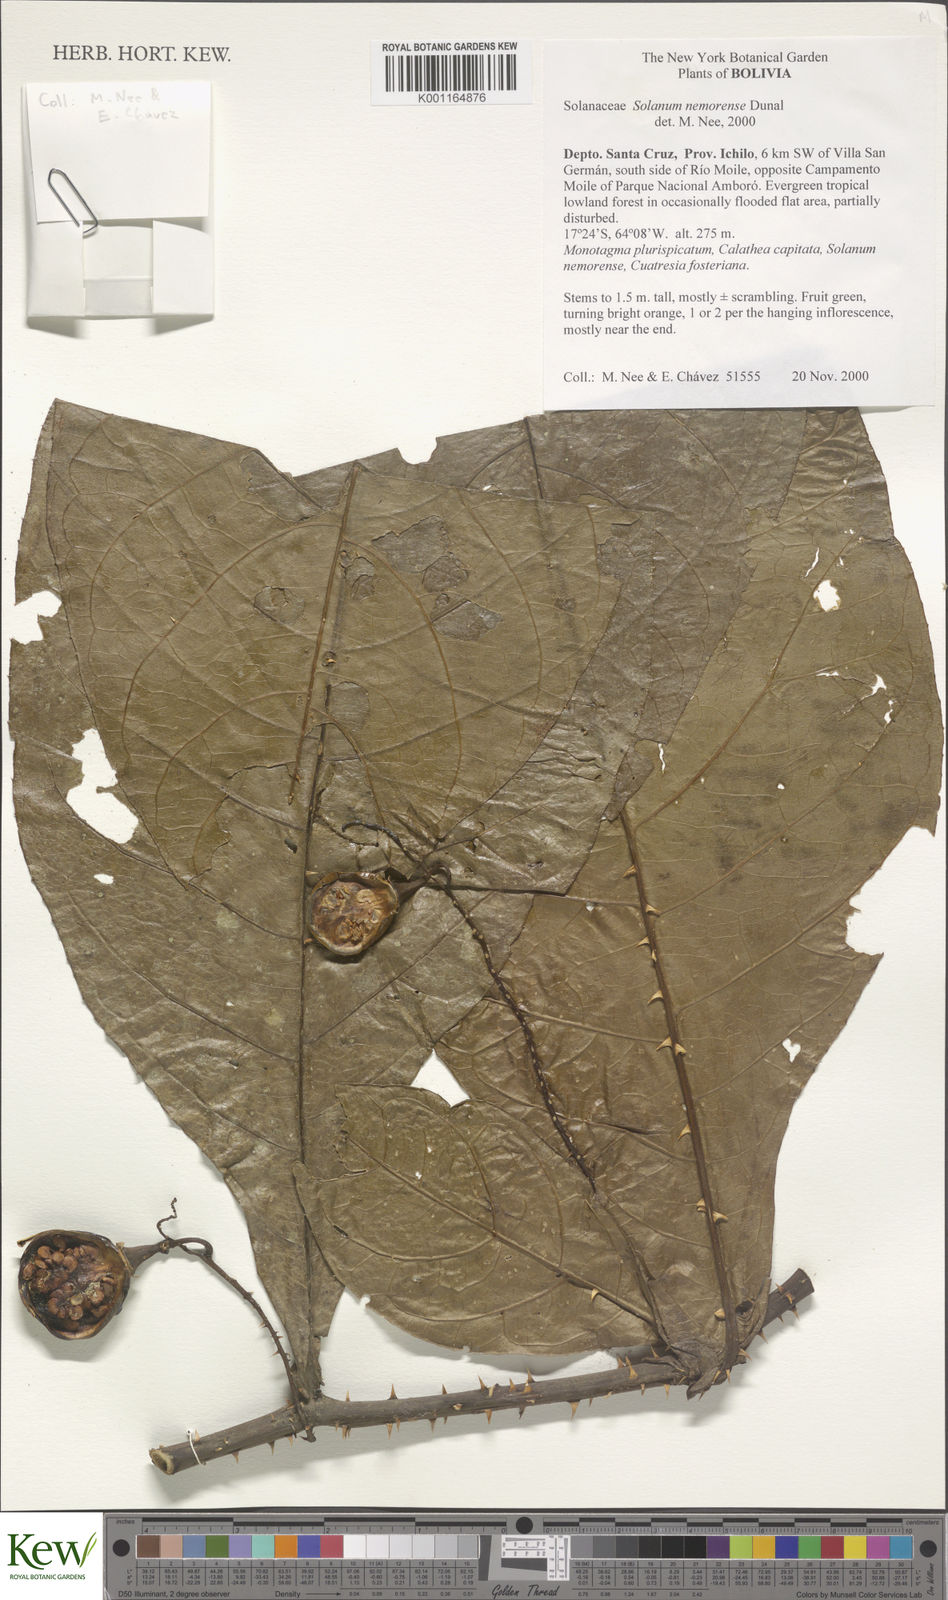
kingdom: Plantae
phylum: Tracheophyta
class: Magnoliopsida
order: Solanales
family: Solanaceae
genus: Solanum
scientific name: Solanum nemorense
